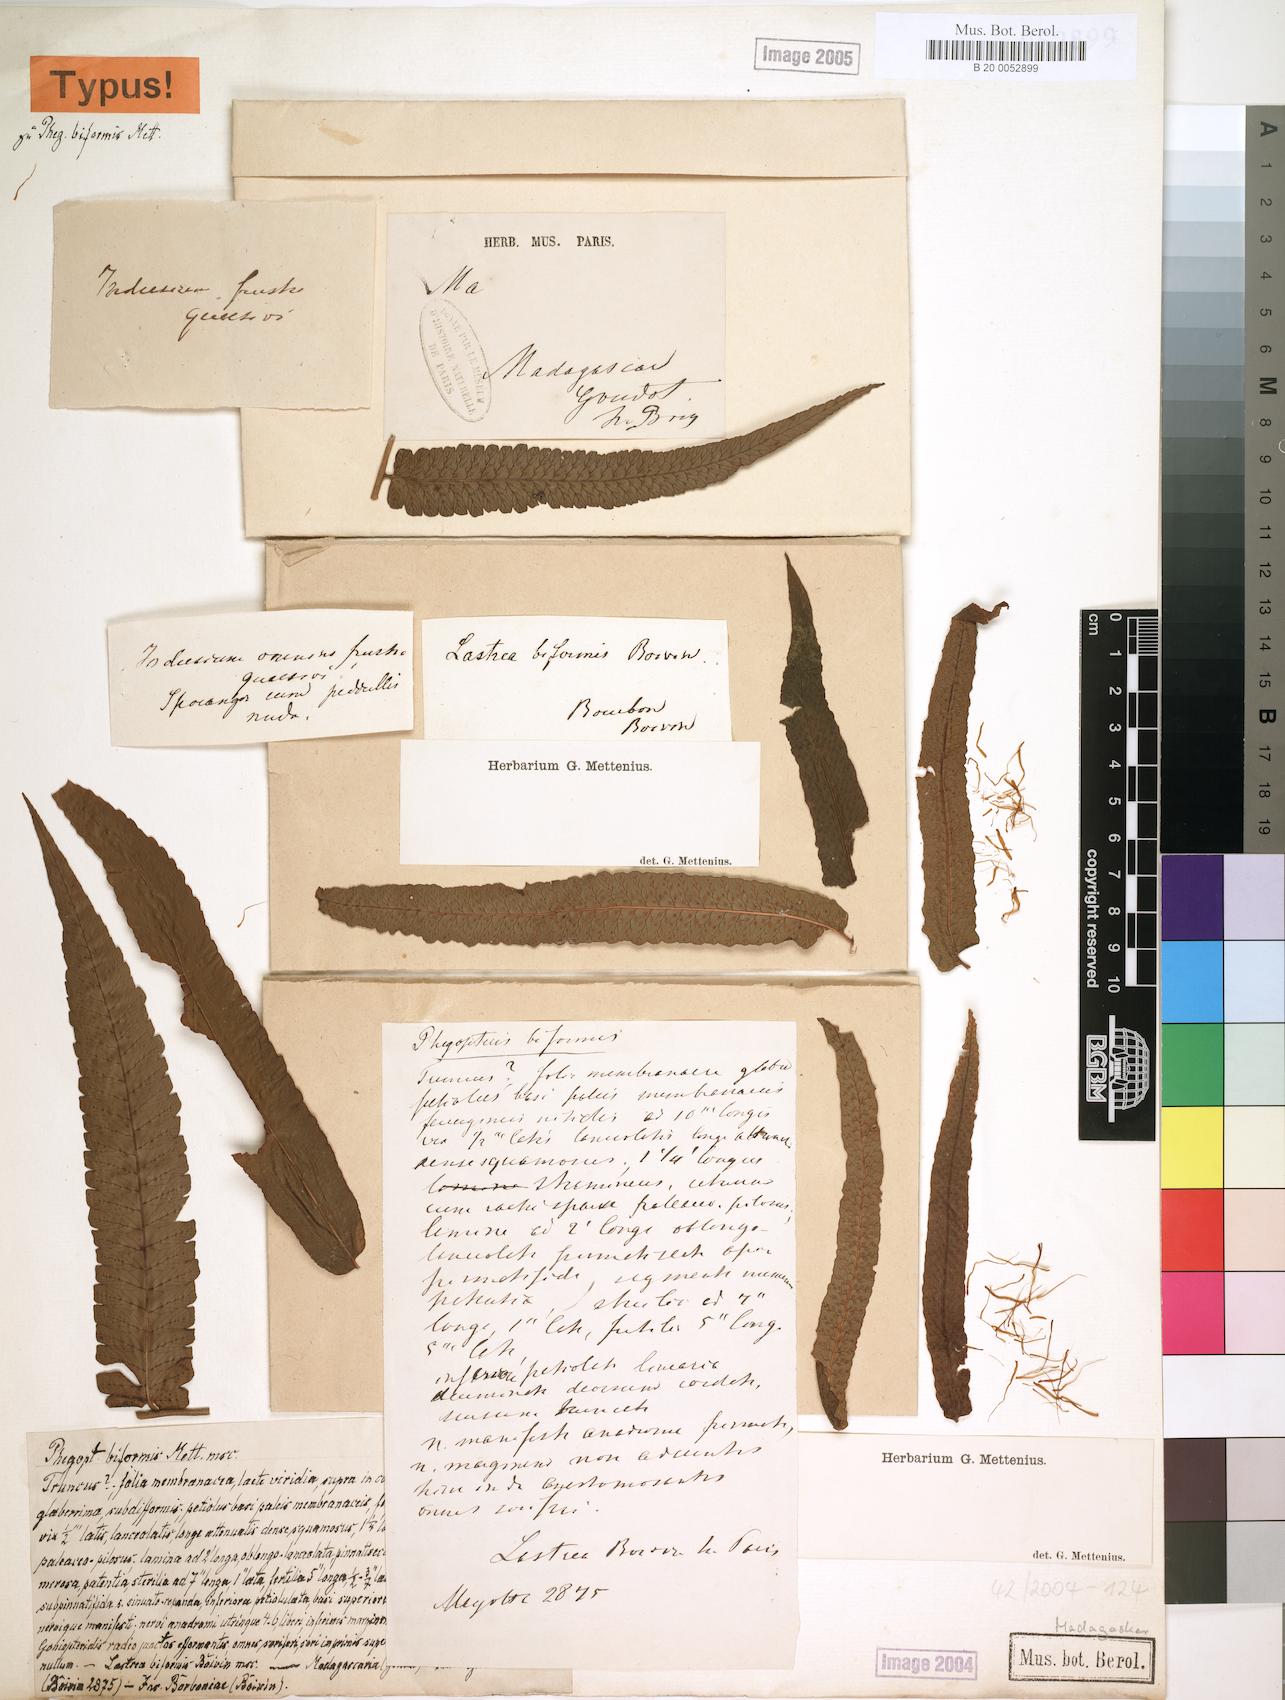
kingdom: Plantae
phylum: Tracheophyta
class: Polypodiopsida
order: Polypodiales
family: Dryopteridaceae
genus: Ctenitis
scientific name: Ctenitis biformis
